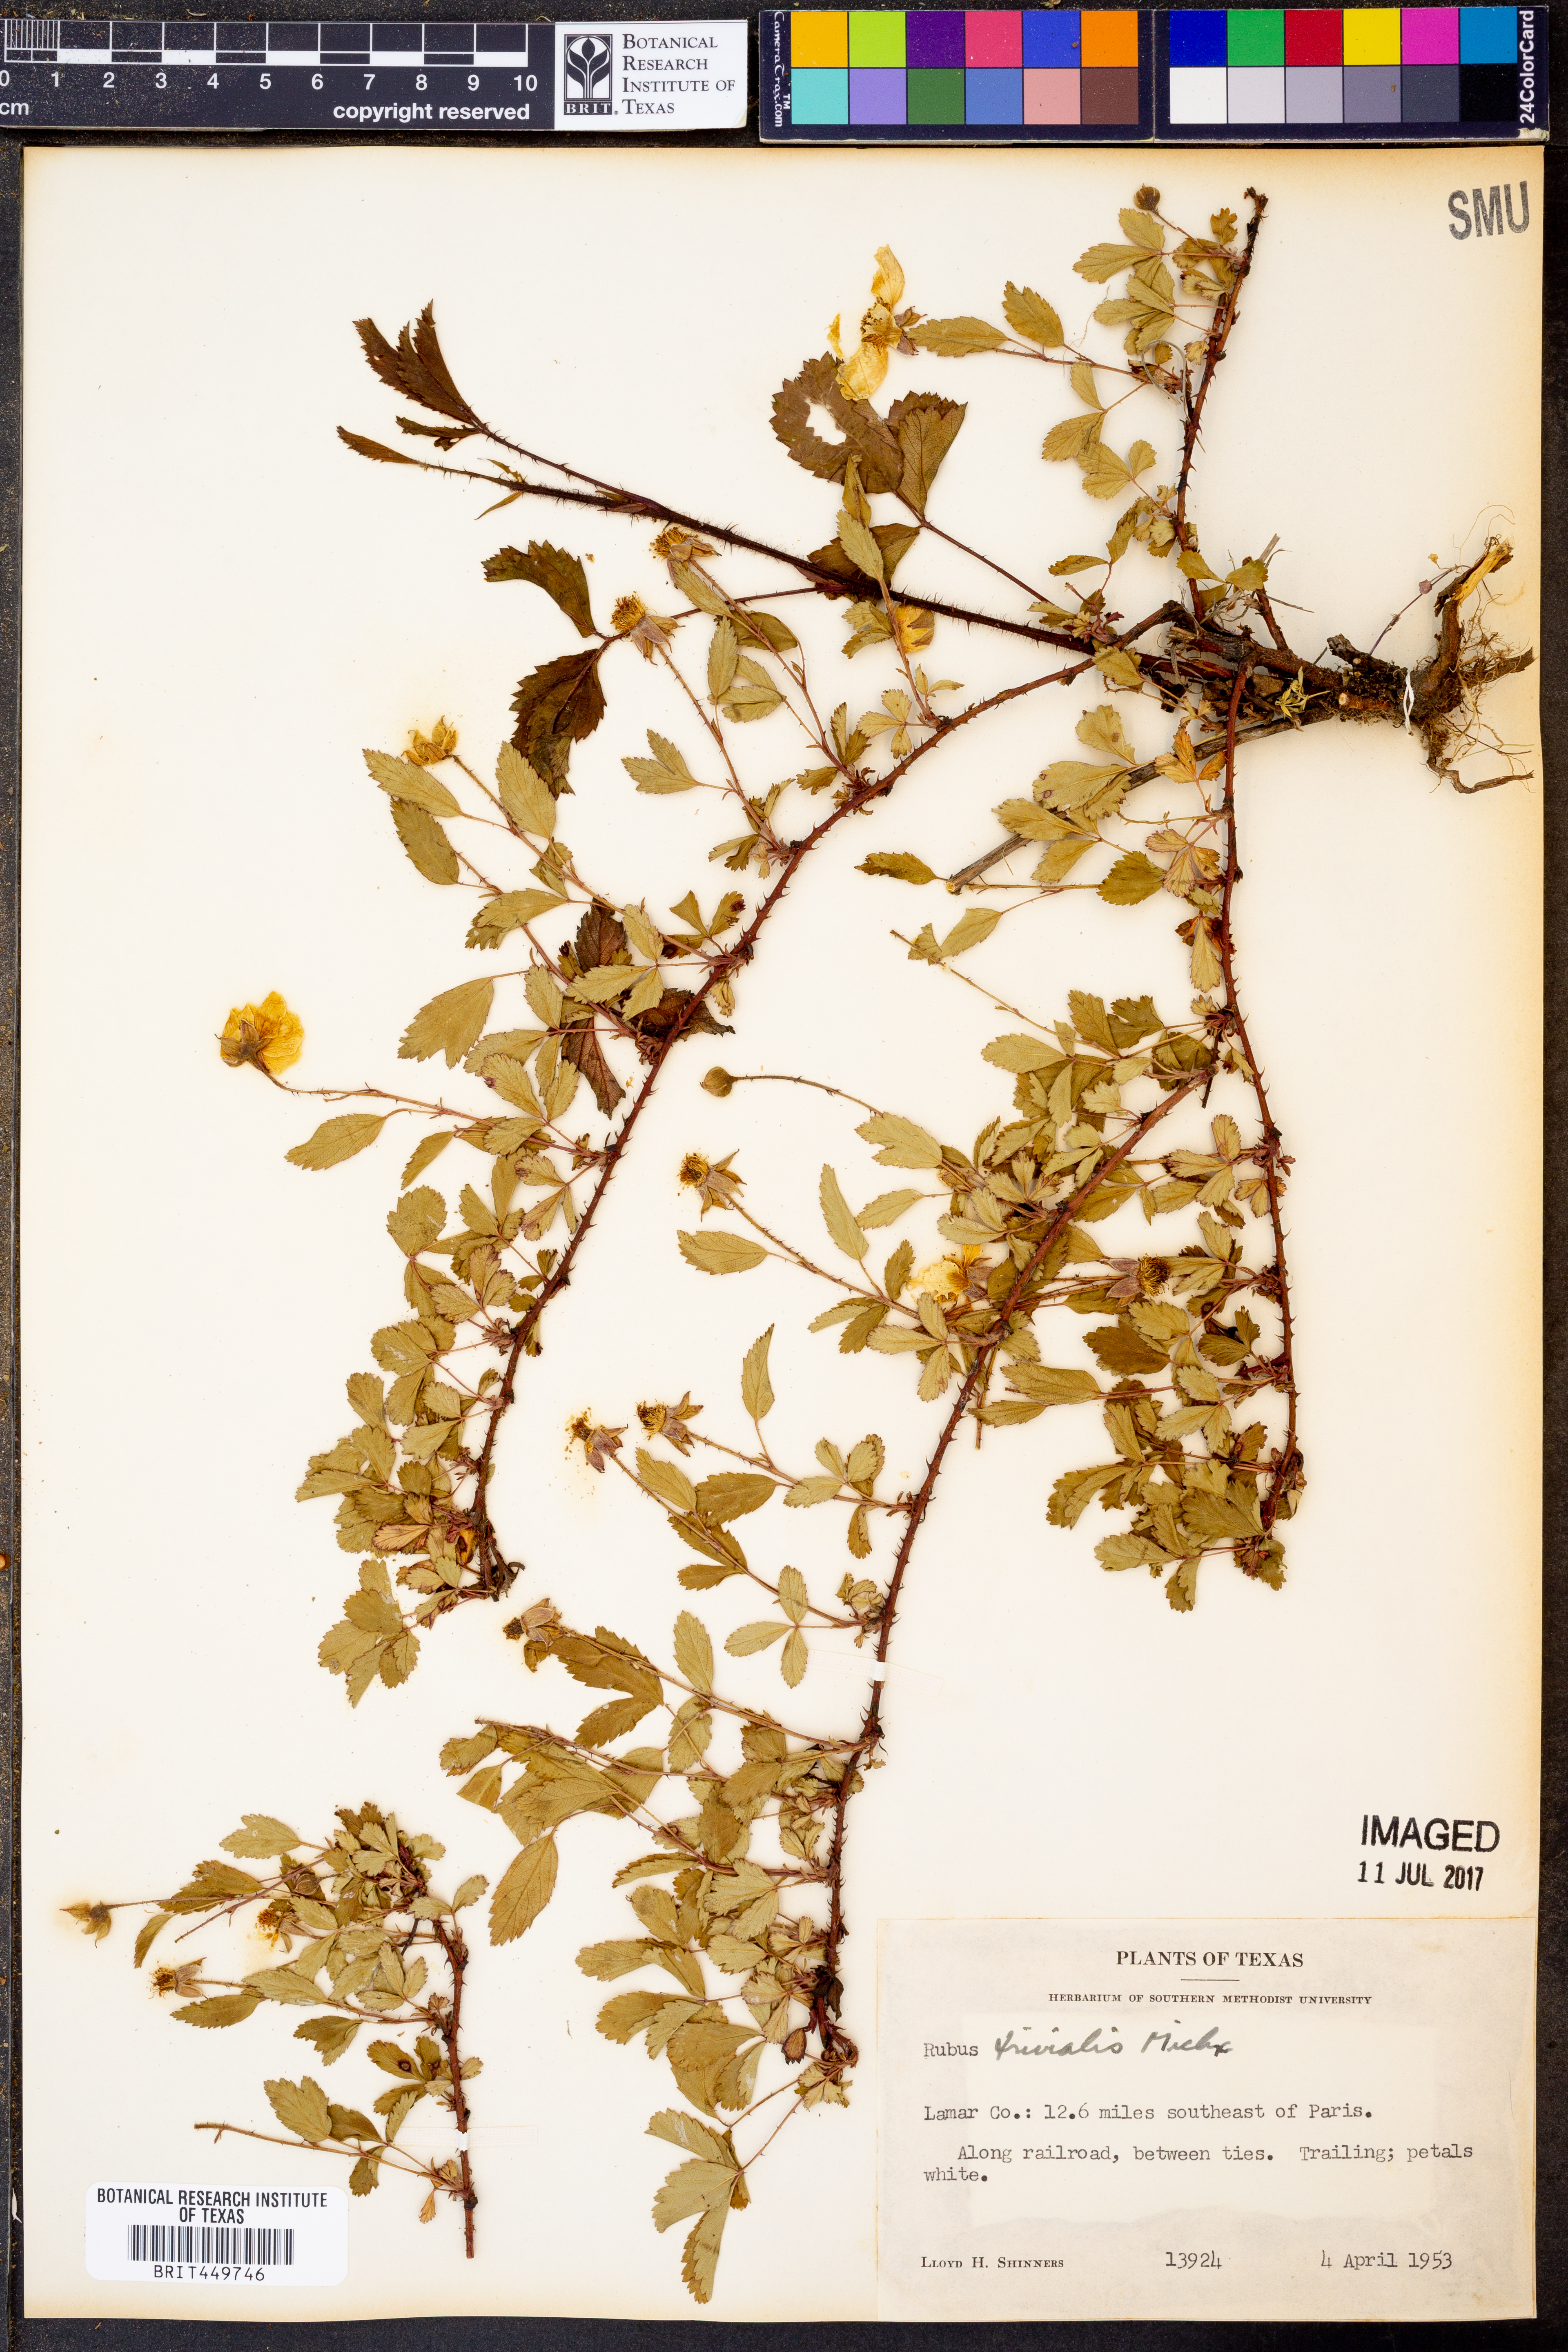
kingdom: Plantae
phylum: Tracheophyta
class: Magnoliopsida
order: Rosales
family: Rosaceae
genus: Rubus
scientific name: Rubus trivialis
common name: Southern dewberry
